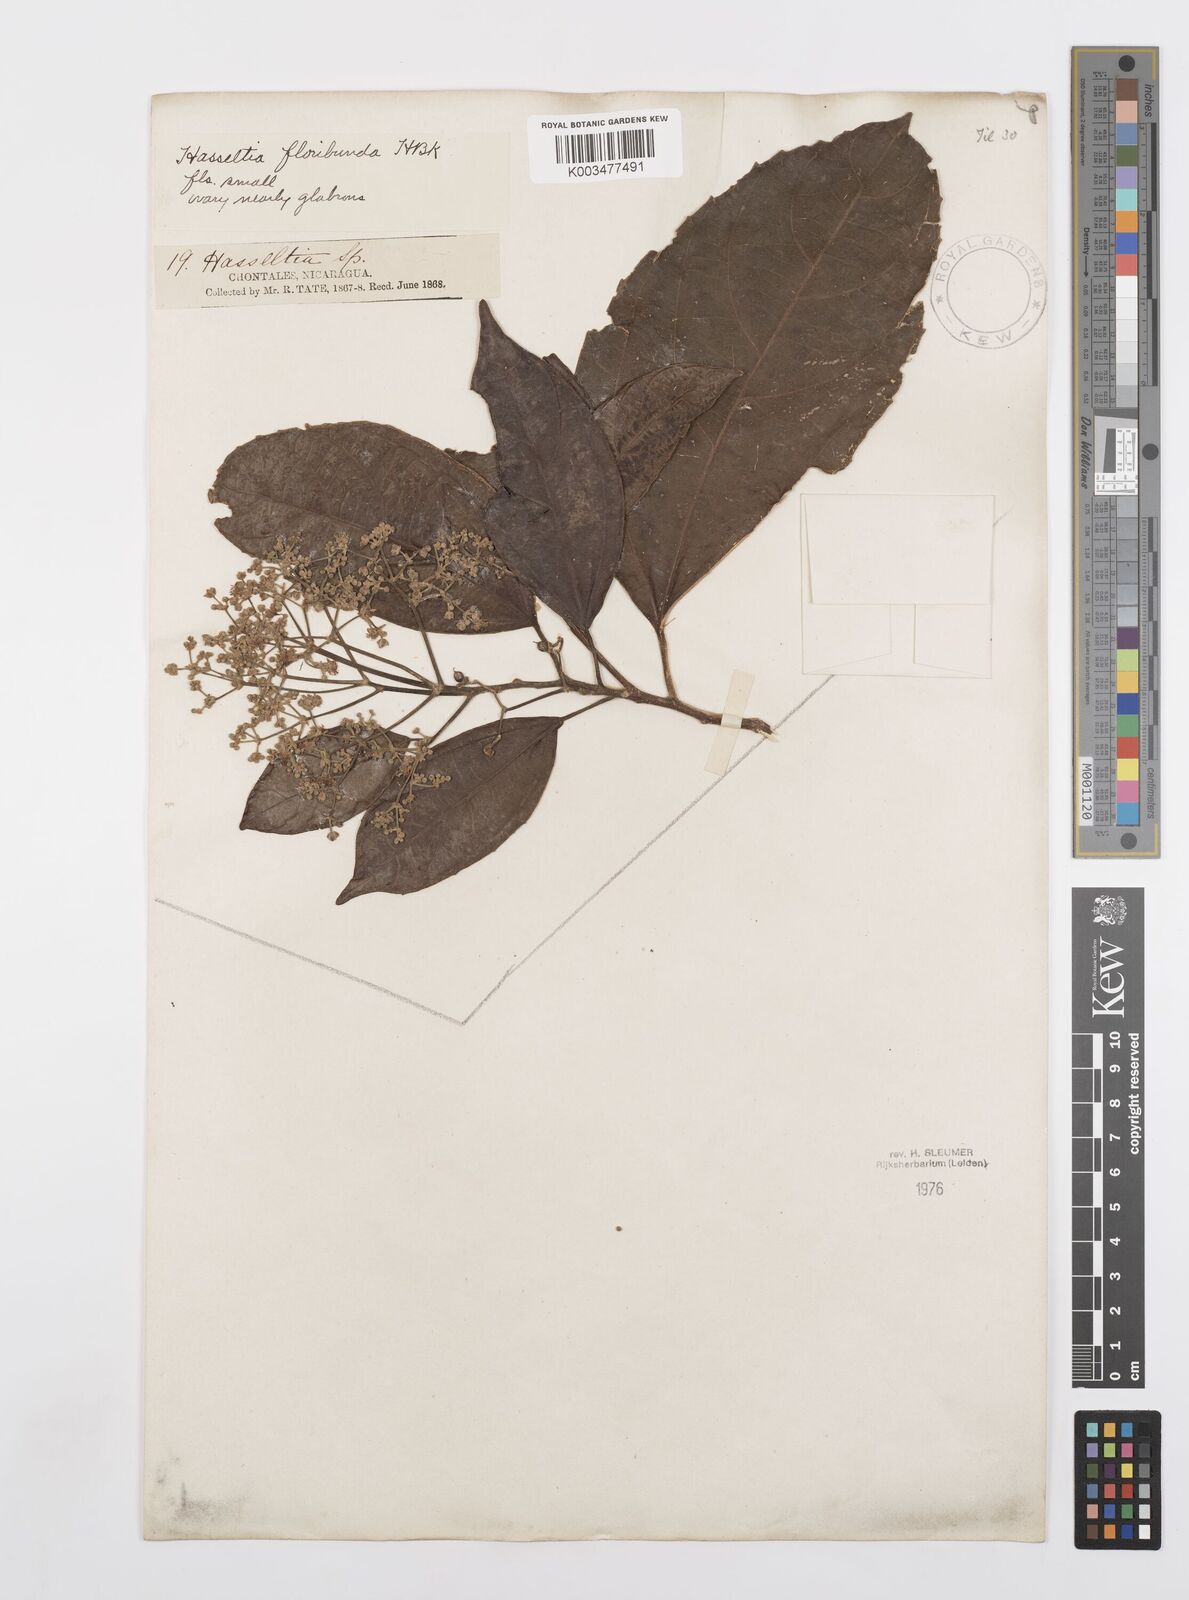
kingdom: Plantae
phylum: Tracheophyta
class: Magnoliopsida
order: Malpighiales
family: Salicaceae
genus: Hasseltia
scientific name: Hasseltia floribunda
